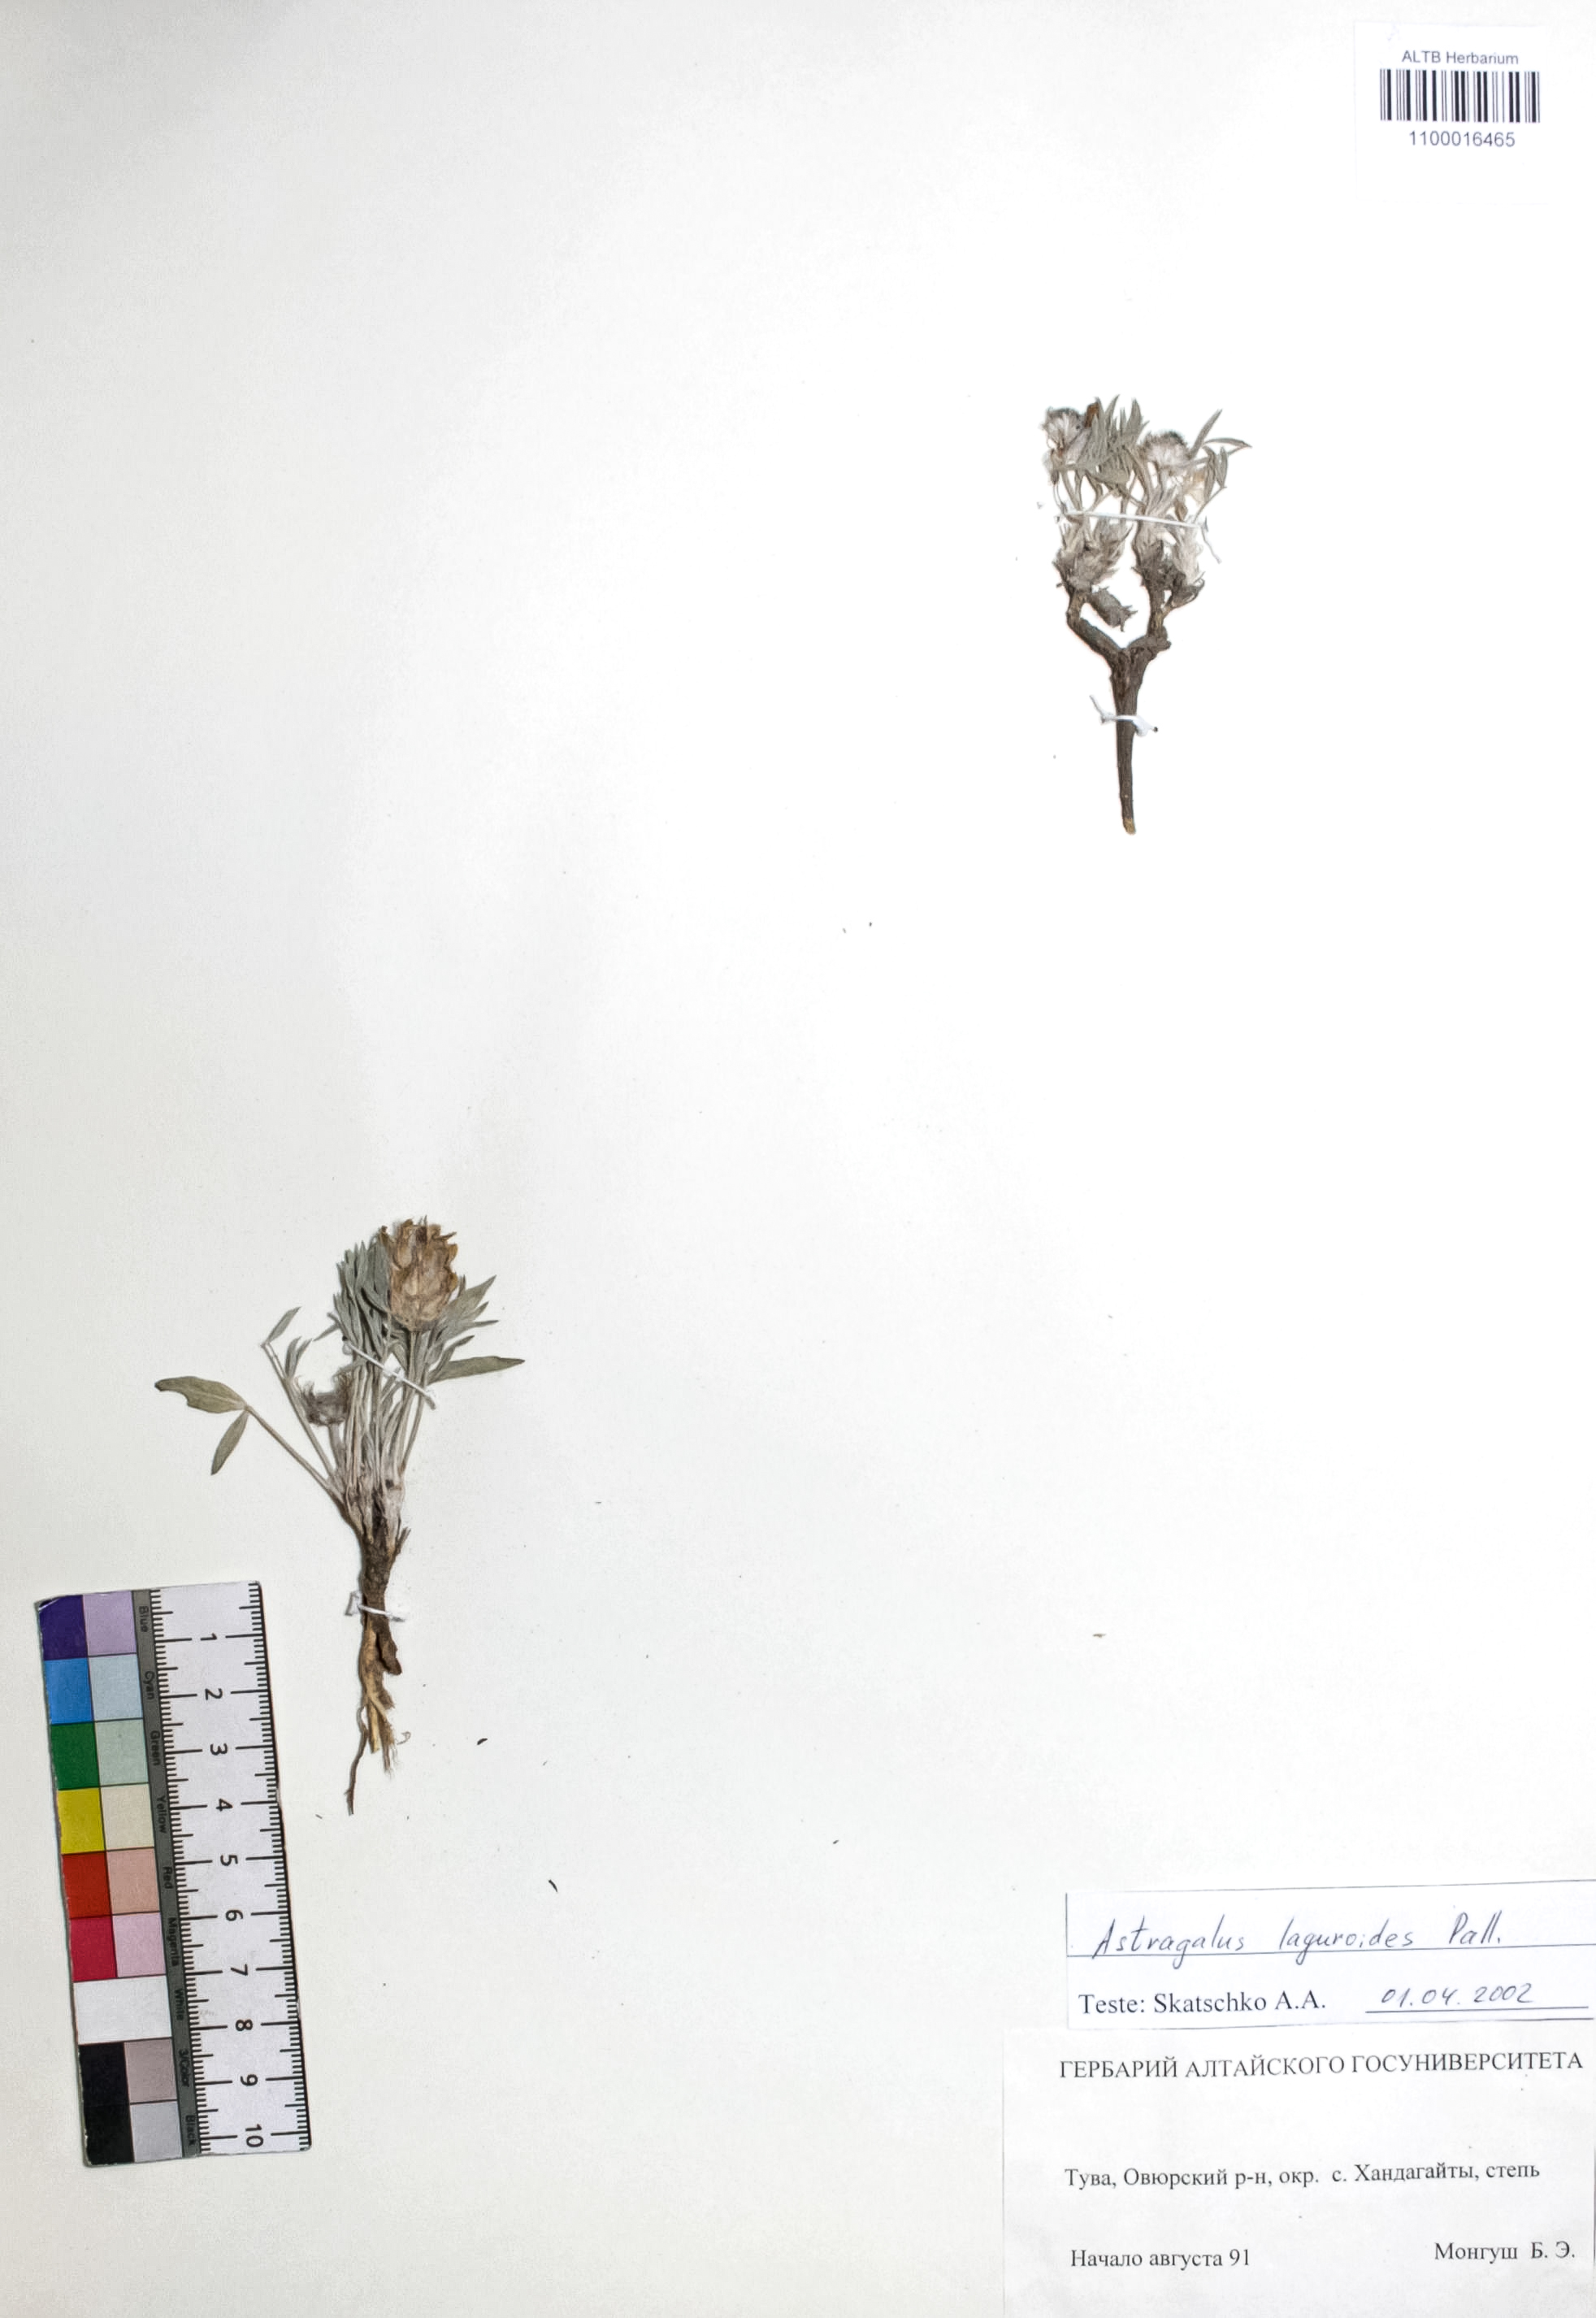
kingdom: Plantae
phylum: Tracheophyta
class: Magnoliopsida
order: Fabales
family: Fabaceae
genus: Astragalus
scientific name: Astragalus laguroides
